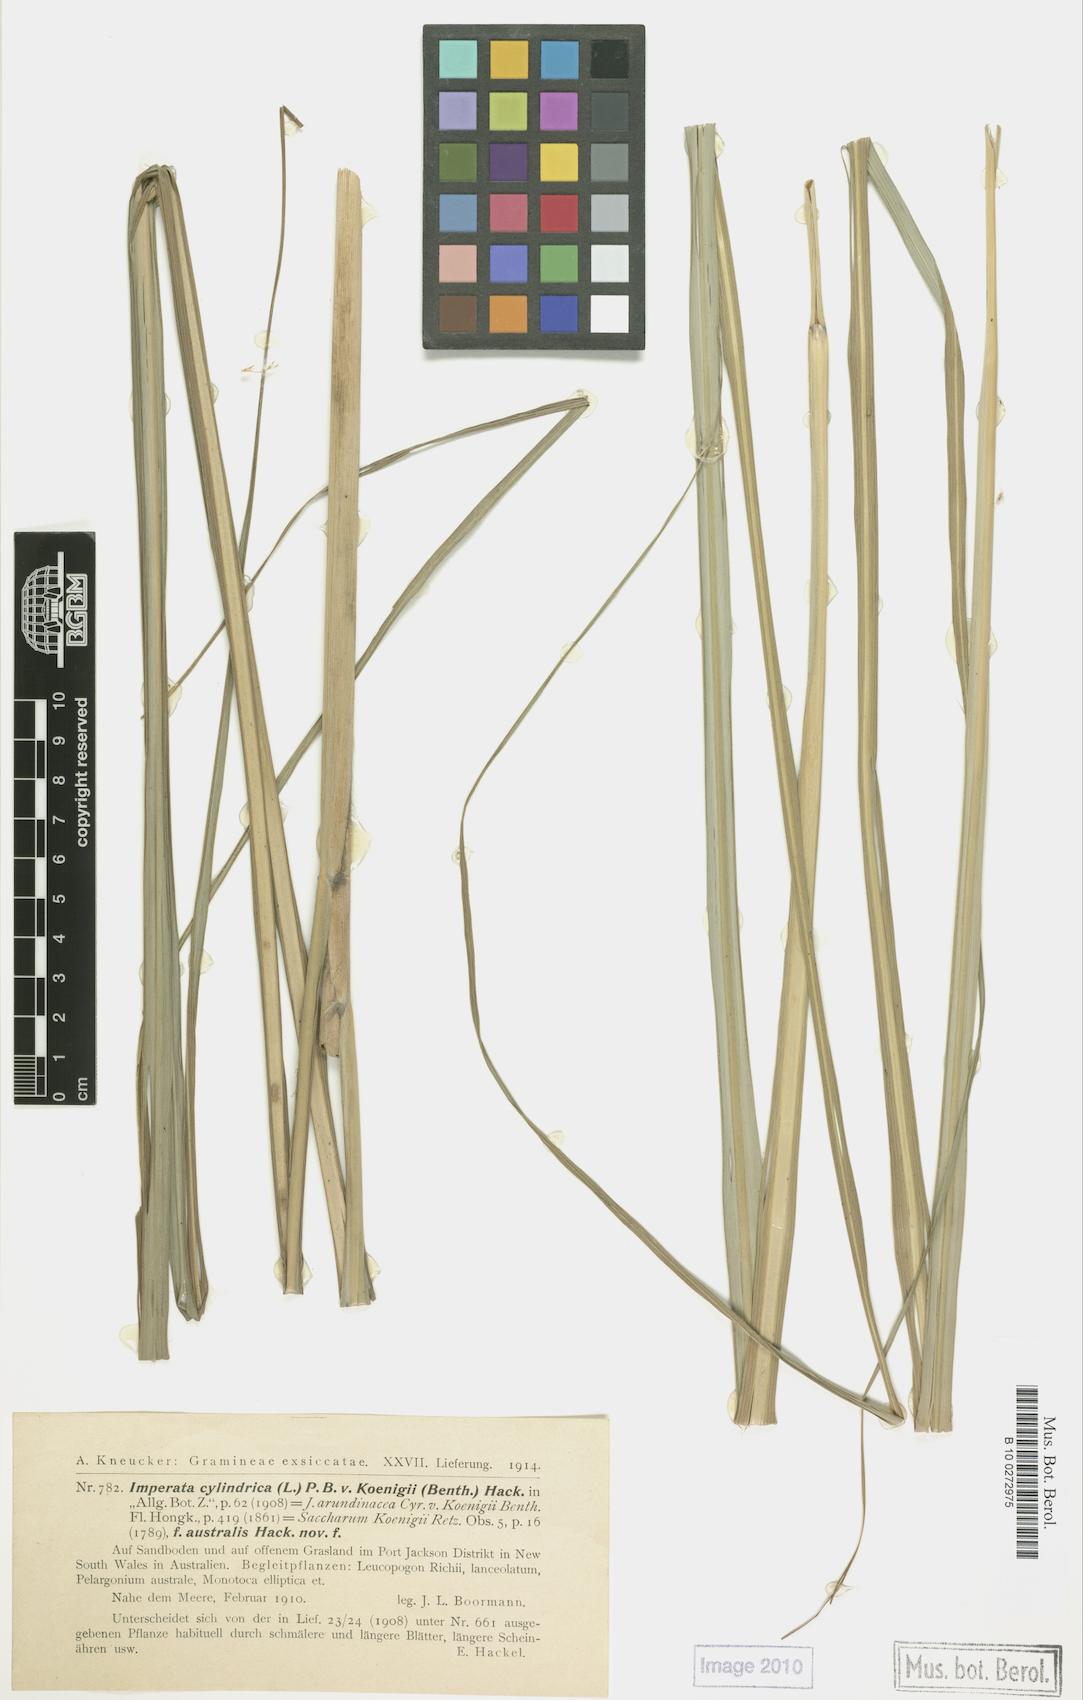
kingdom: Plantae
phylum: Tracheophyta
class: Liliopsida
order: Poales
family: Poaceae
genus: Imperata
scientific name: Imperata cylindrica
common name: Cogongrass
